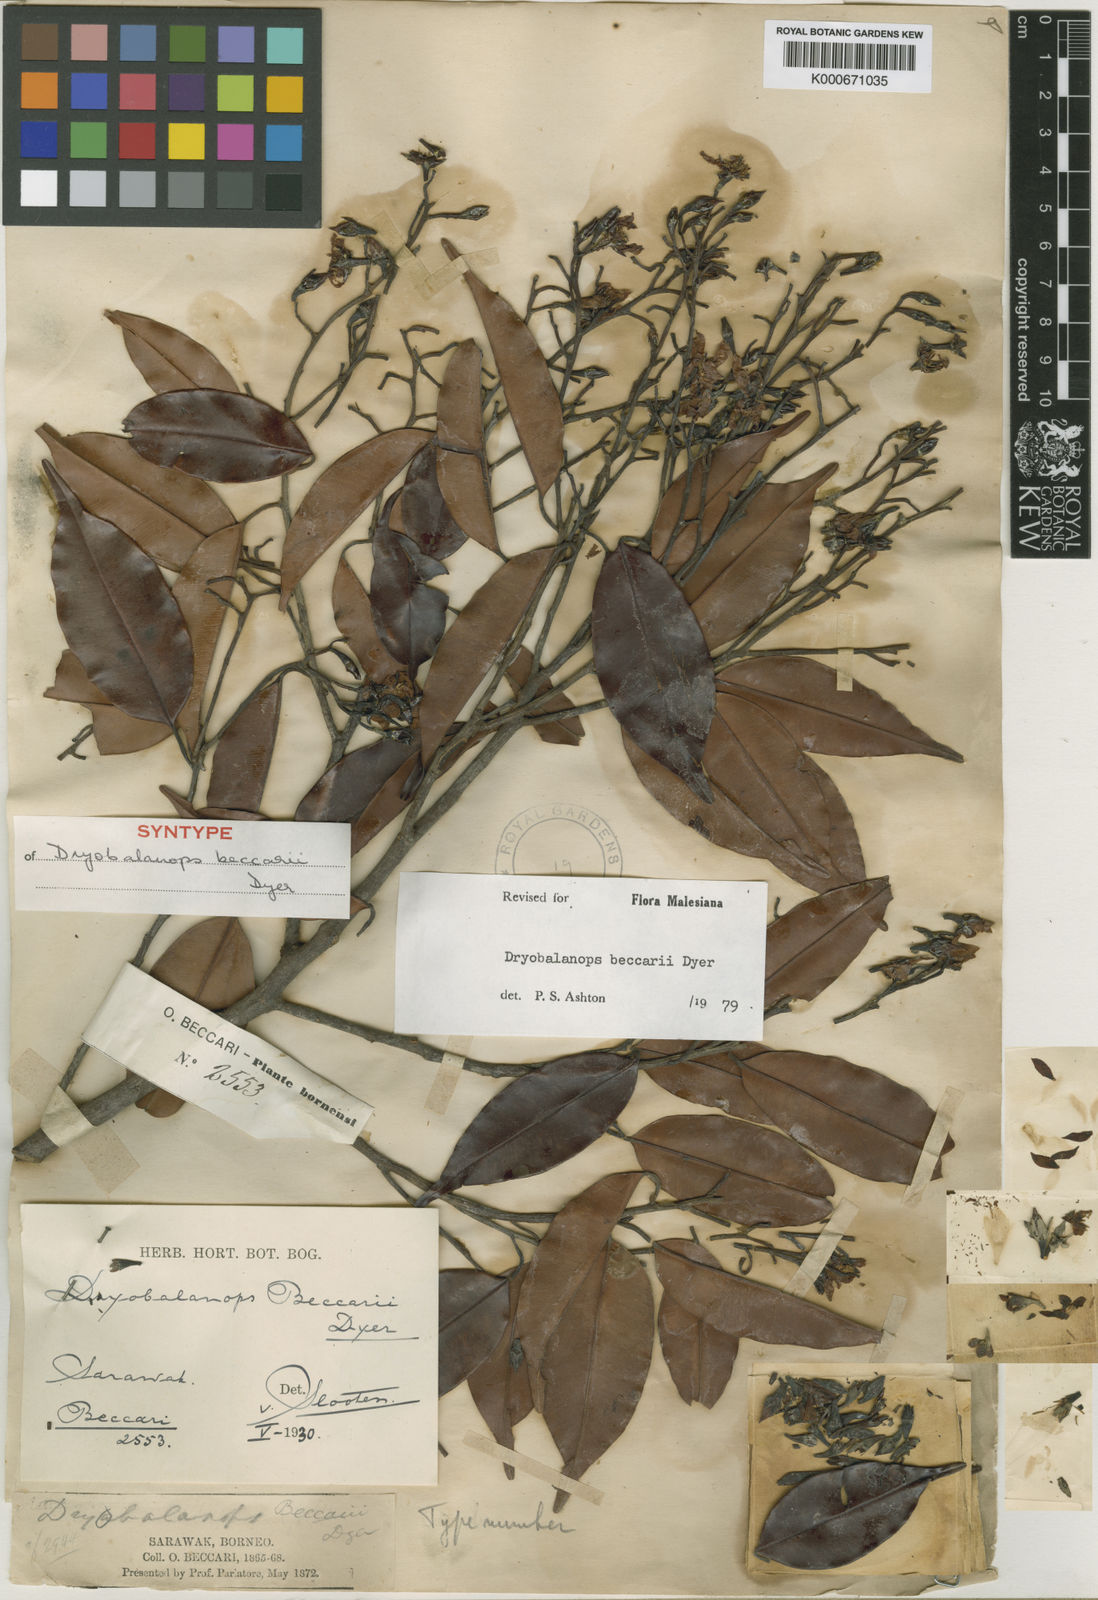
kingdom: Plantae
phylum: Tracheophyta
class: Magnoliopsida
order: Malvales
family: Dipterocarpaceae
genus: Dryobalanops
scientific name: Dryobalanops beccarii
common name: Sabah kapur
